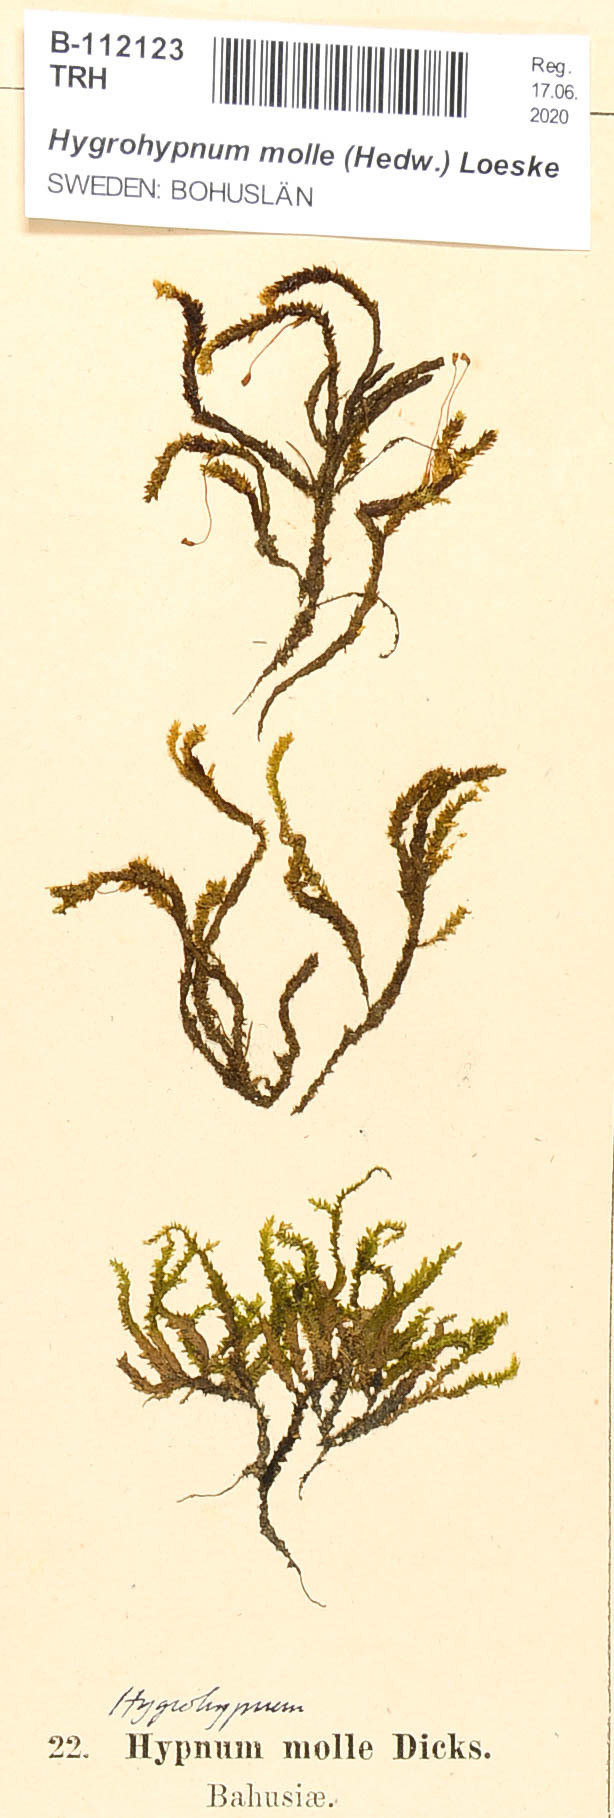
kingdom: Plantae
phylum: Bryophyta
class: Bryopsida
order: Hypnales
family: Amblystegiaceae
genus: Platyhypnum
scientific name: Platyhypnum molle
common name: Soft brook-moss
